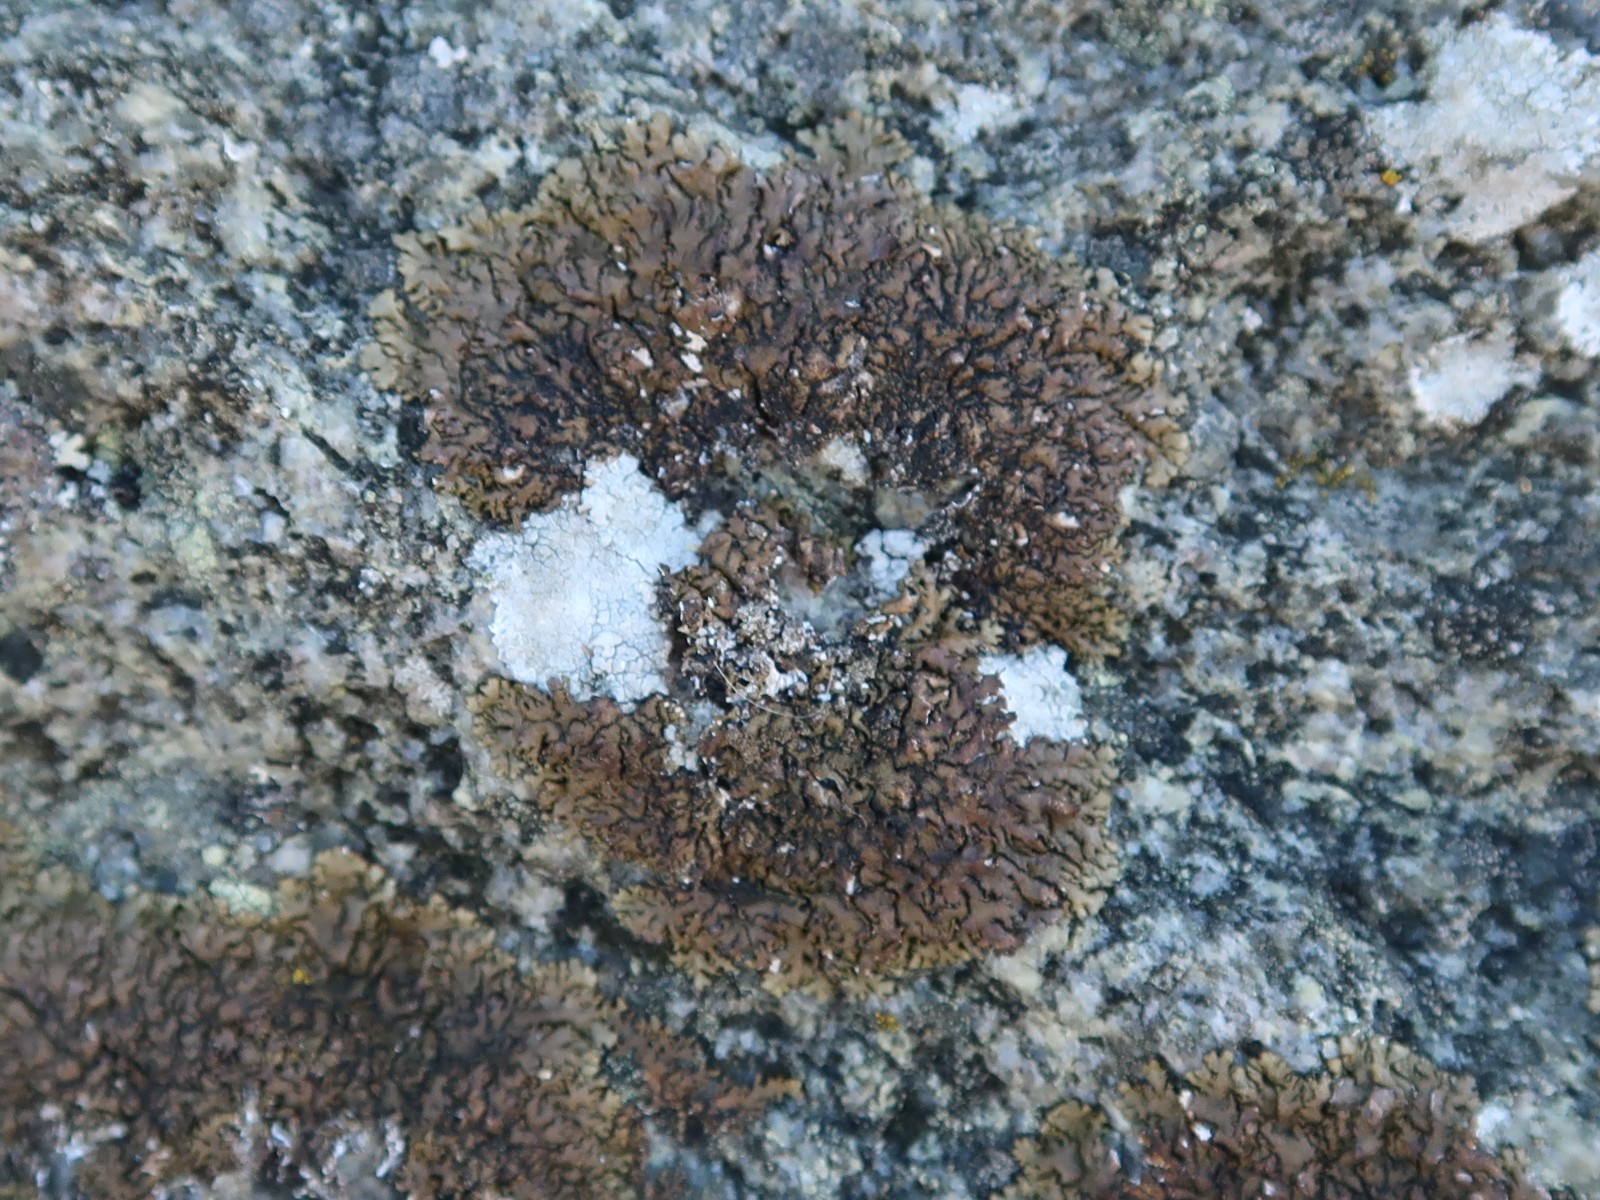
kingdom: Fungi
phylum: Ascomycota
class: Lecanoromycetes
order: Caliciales
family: Physciaceae
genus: Kurokawia
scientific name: Kurokawia runcinata
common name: brun frynselav
